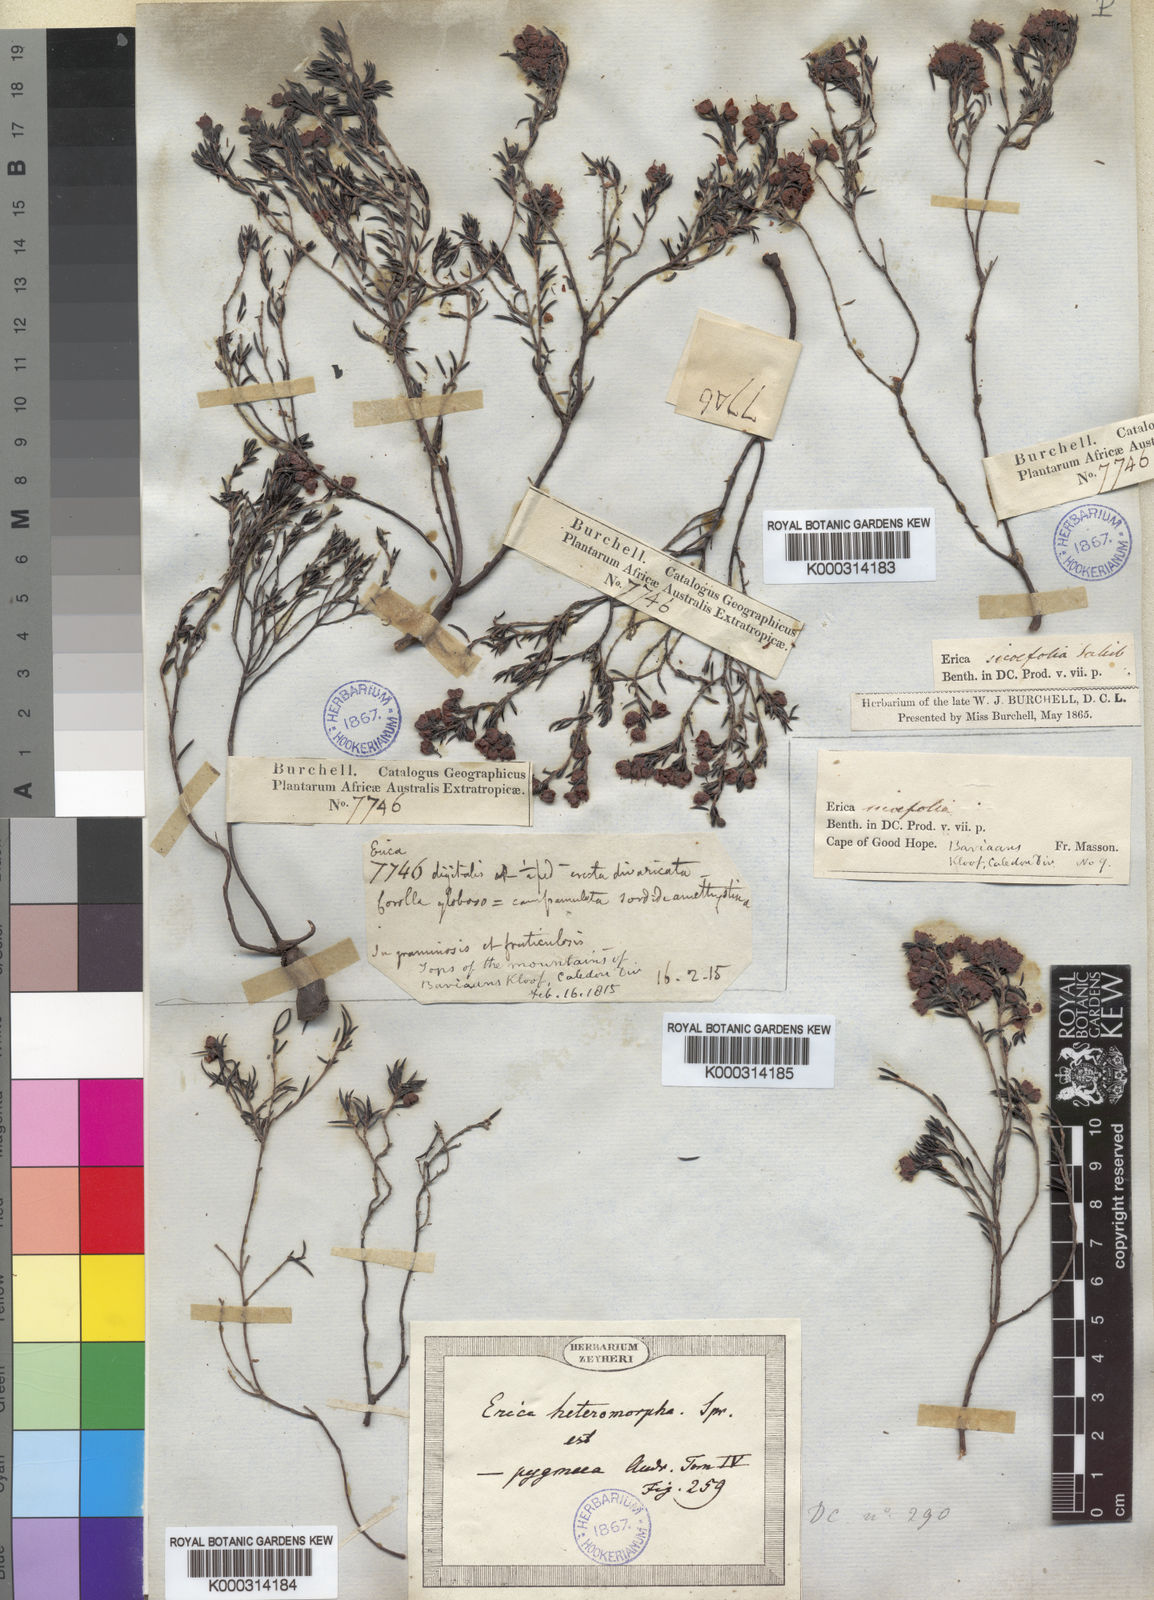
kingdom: Plantae
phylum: Tracheophyta
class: Magnoliopsida
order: Ericales
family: Ericaceae
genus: Erica
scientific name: Erica sicifolia
